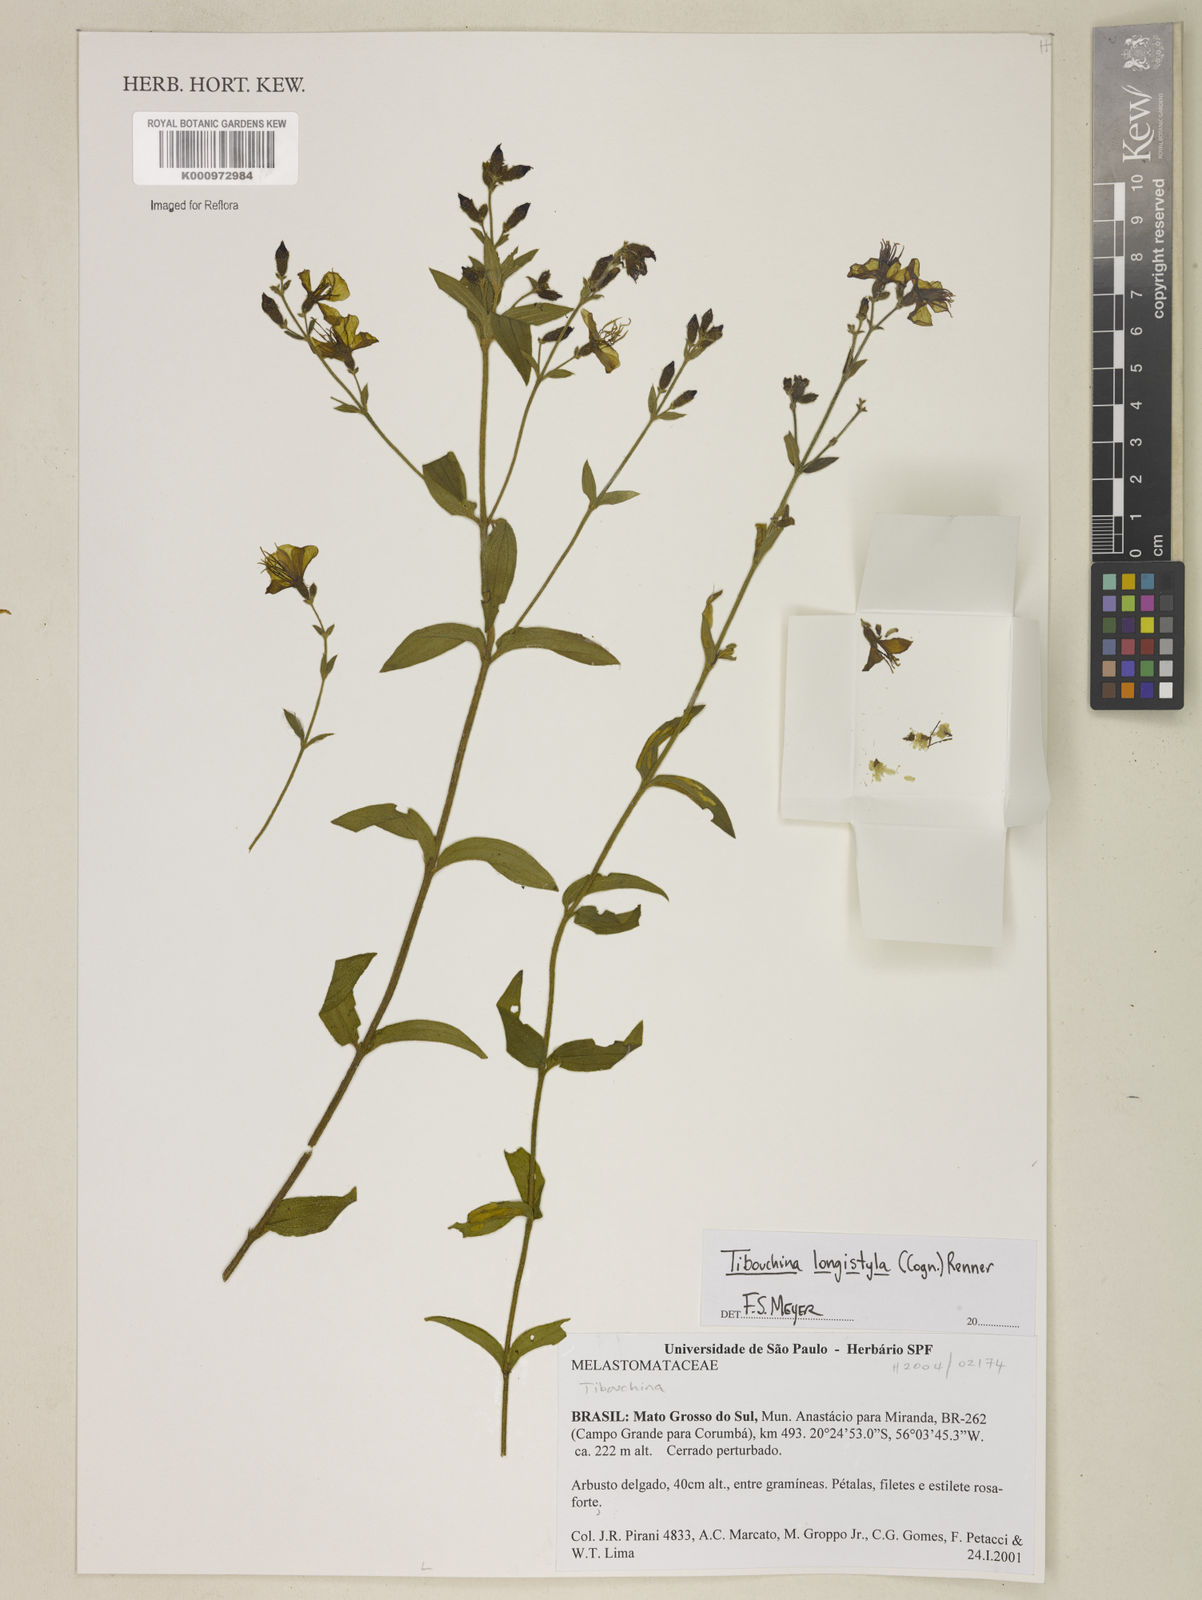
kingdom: Plantae
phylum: Tracheophyta
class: Magnoliopsida
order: Myrtales
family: Melastomataceae
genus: Chaetogastra
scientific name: Chaetogastra longistyla
